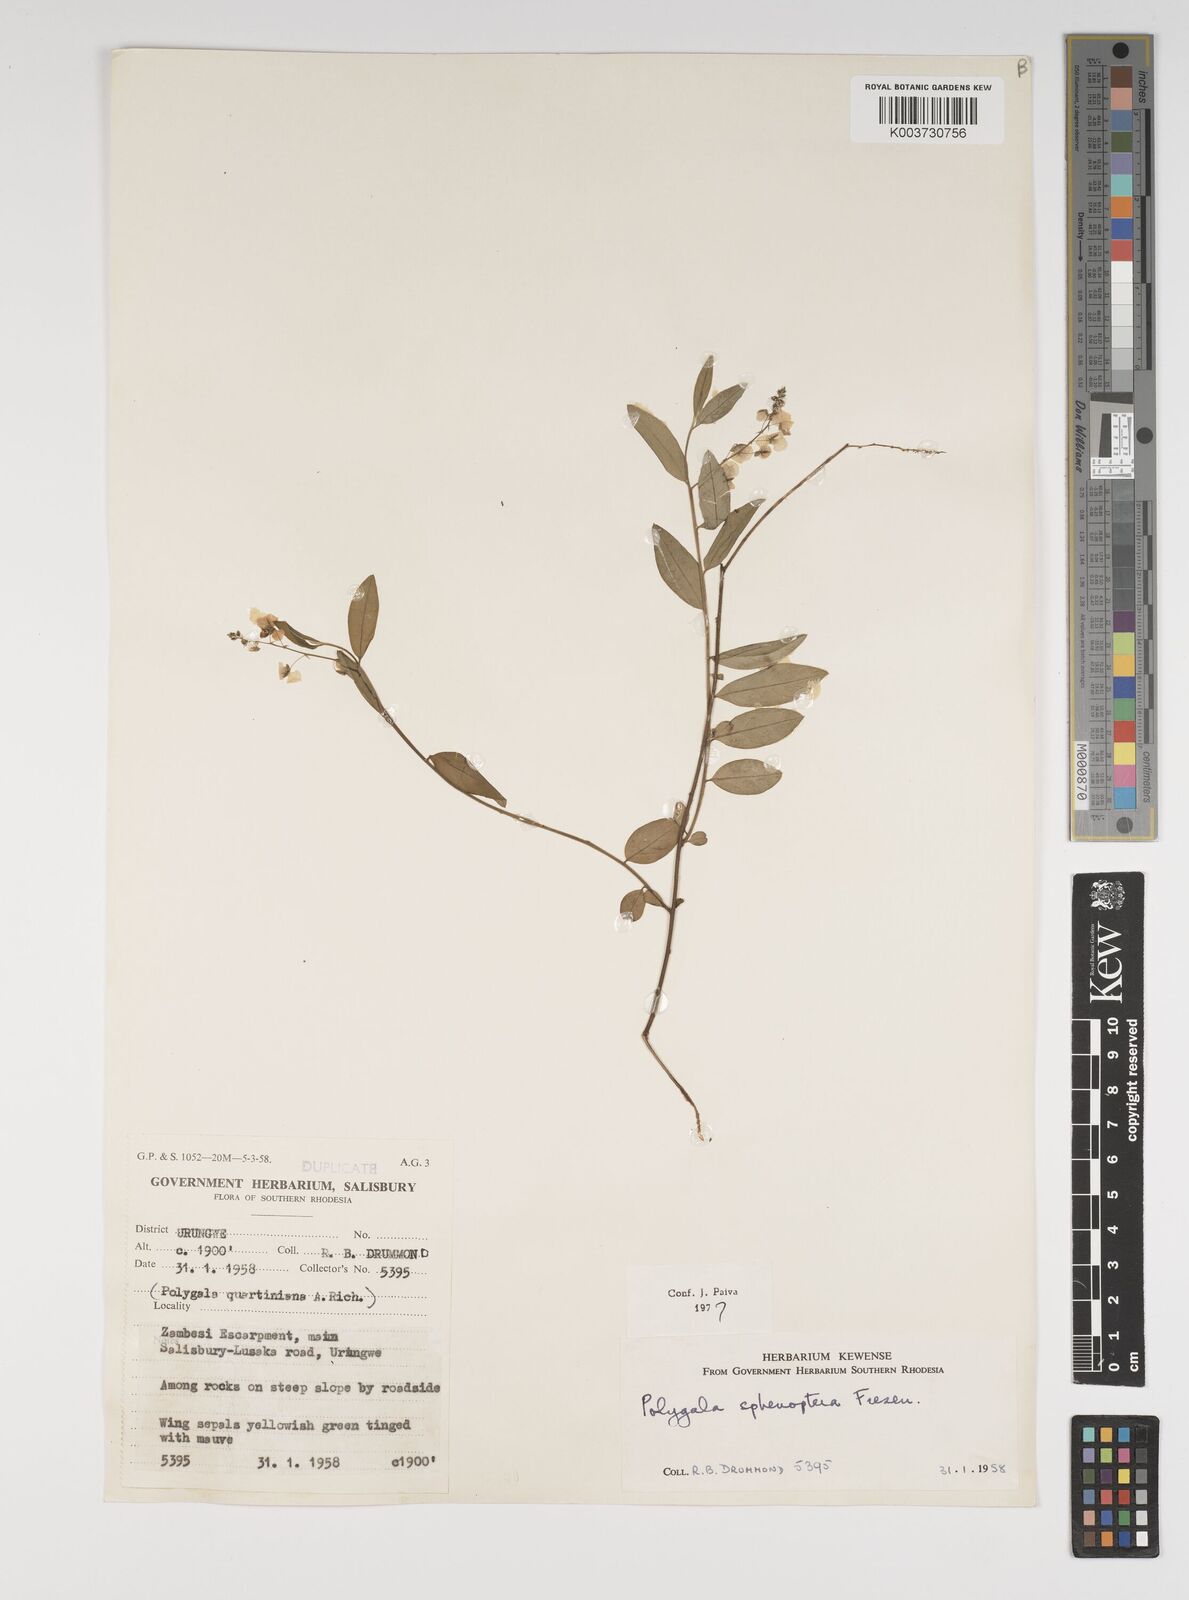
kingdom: Plantae
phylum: Tracheophyta
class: Magnoliopsida
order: Fabales
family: Polygalaceae
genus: Polygala
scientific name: Polygala sphenoptera
